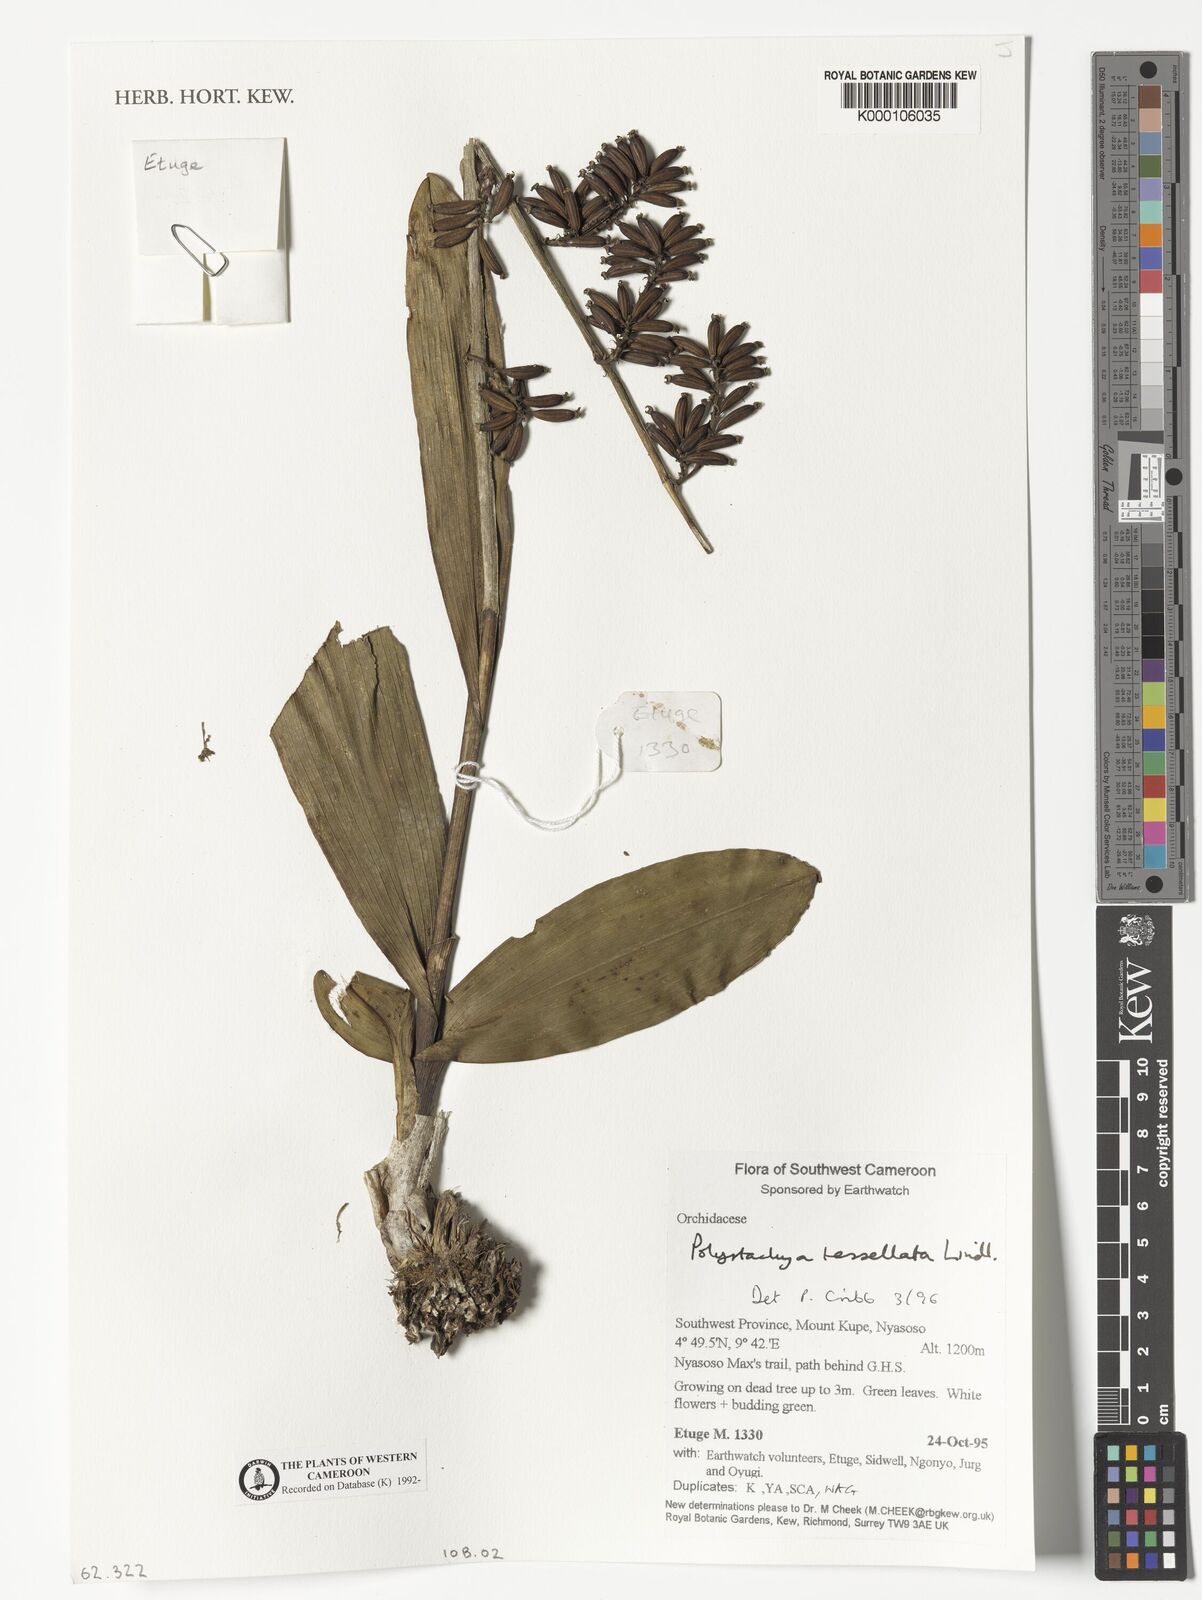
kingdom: Plantae
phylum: Tracheophyta
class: Liliopsida
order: Asparagales
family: Orchidaceae
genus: Polystachya
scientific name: Polystachya concreta
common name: Greater yellowspike orchid
